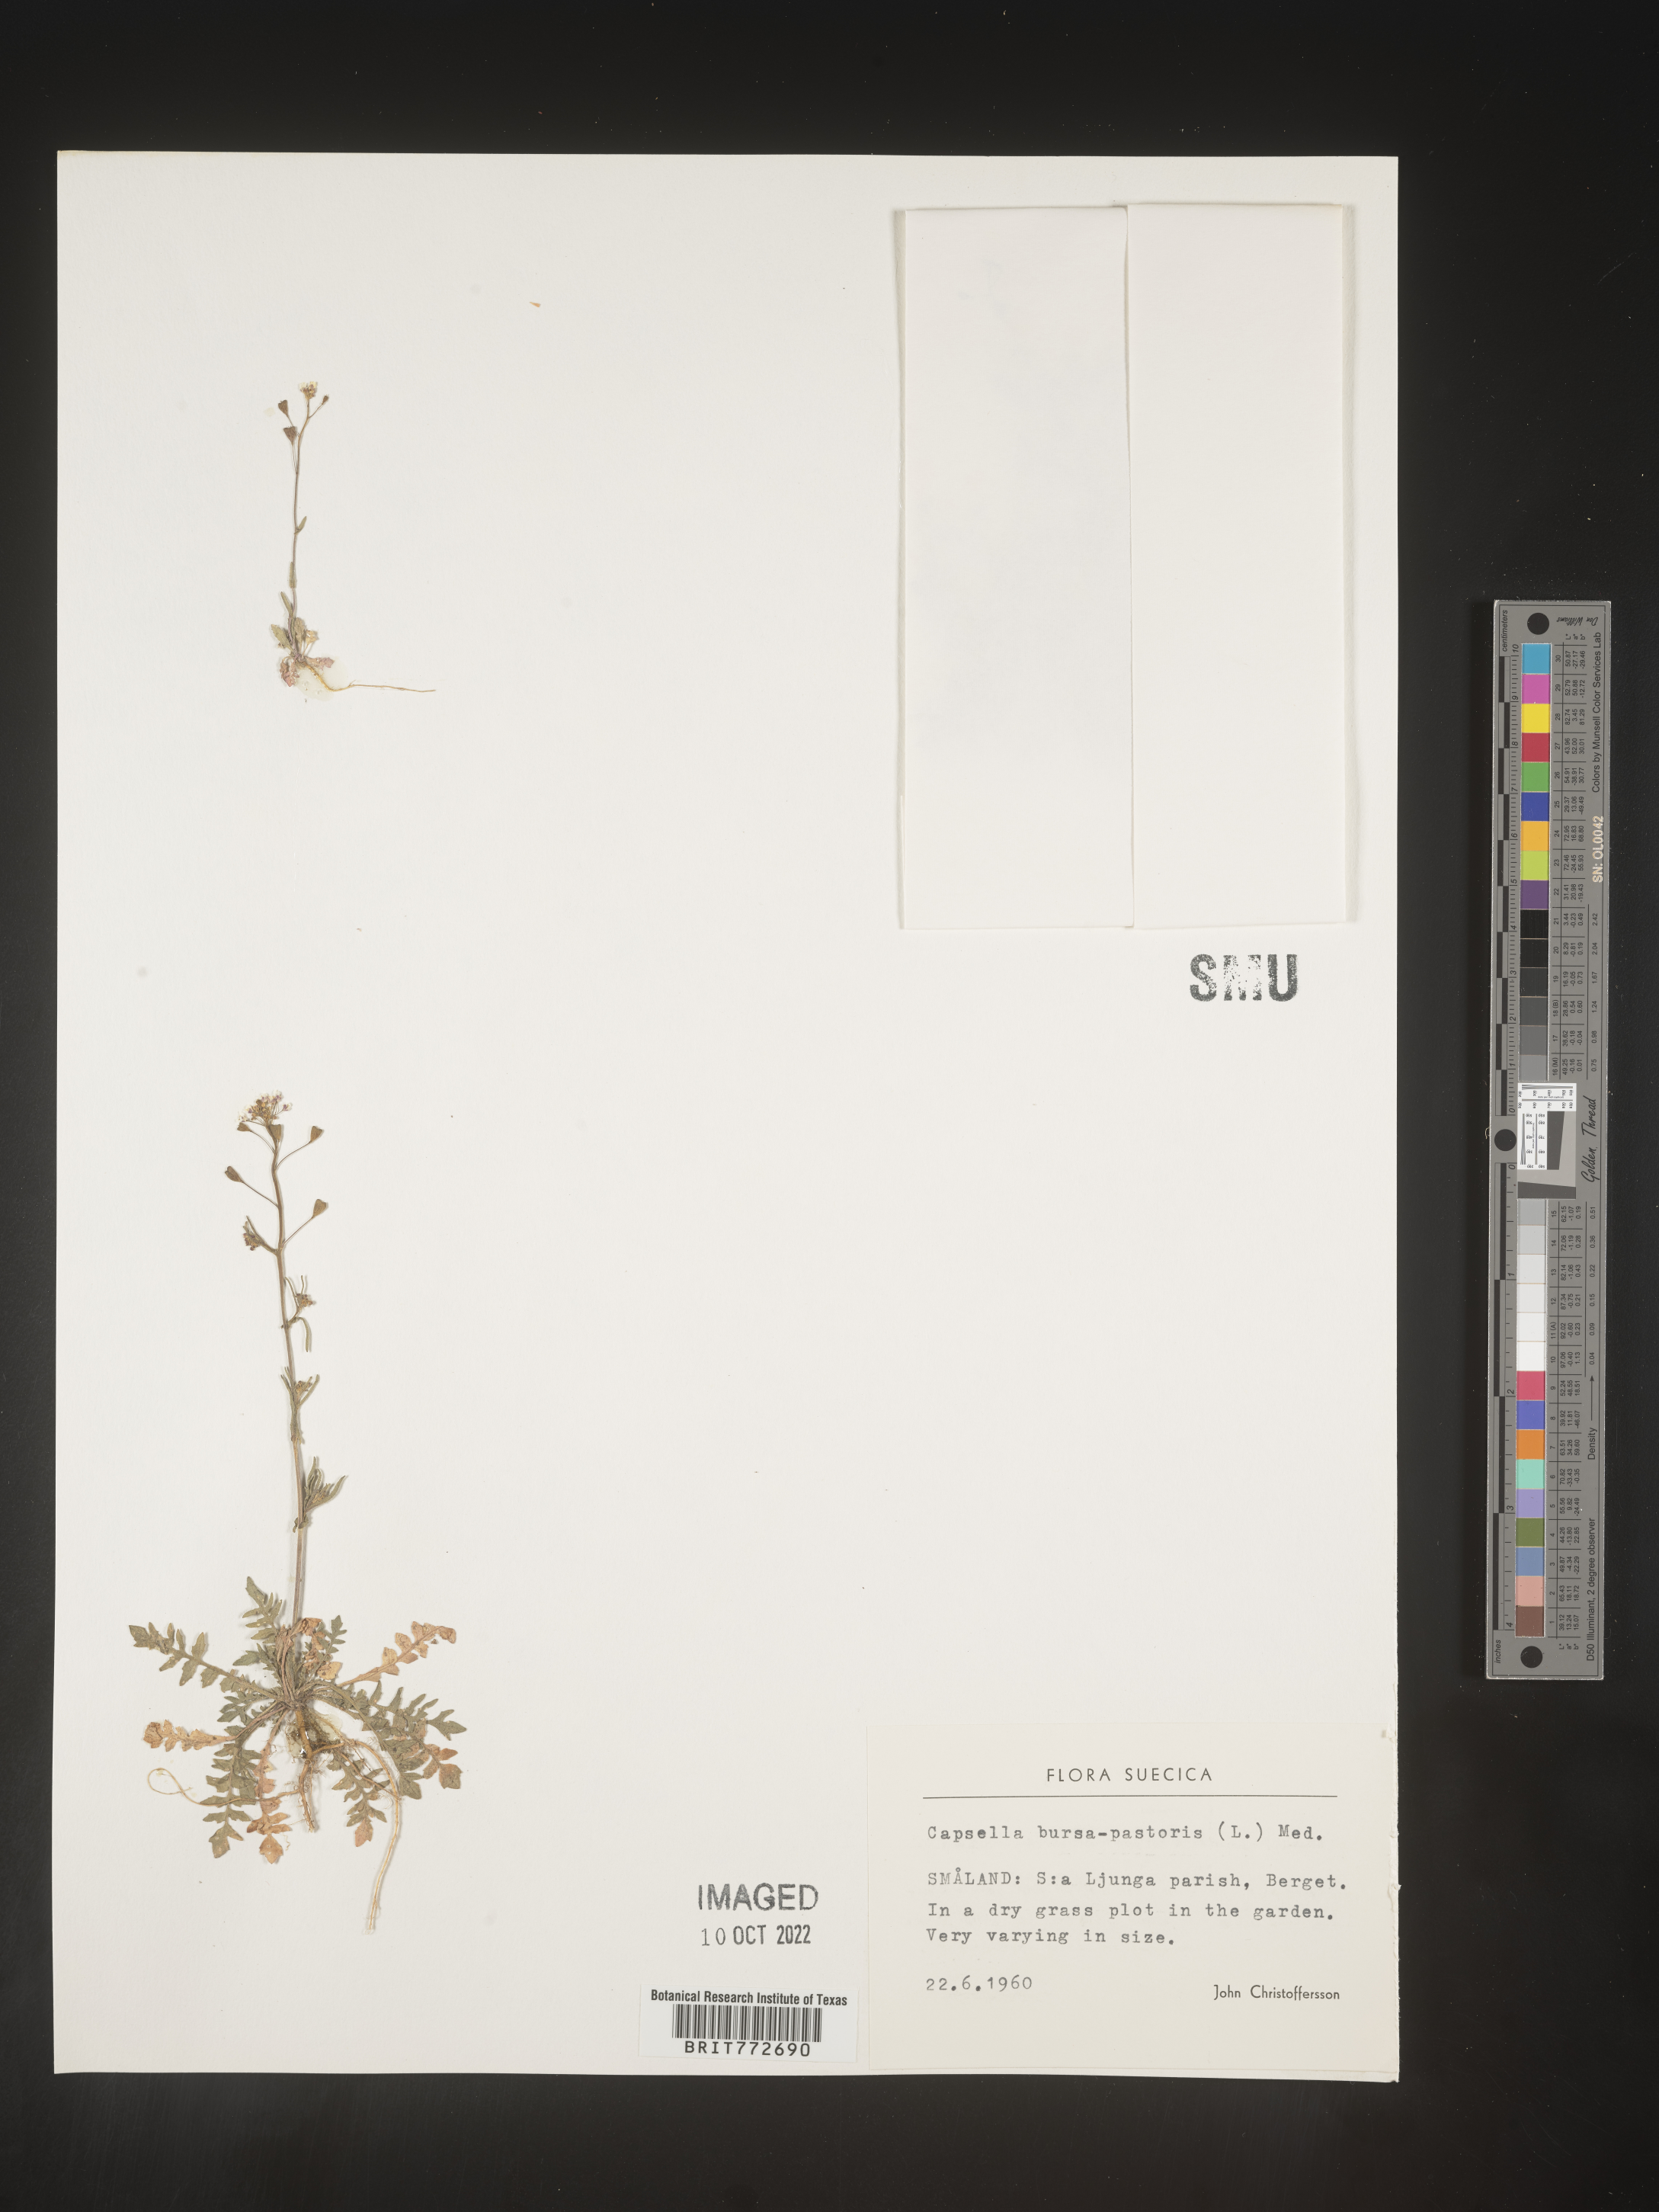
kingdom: Plantae
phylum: Tracheophyta
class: Magnoliopsida
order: Brassicales
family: Brassicaceae
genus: Capsella
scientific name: Capsella
